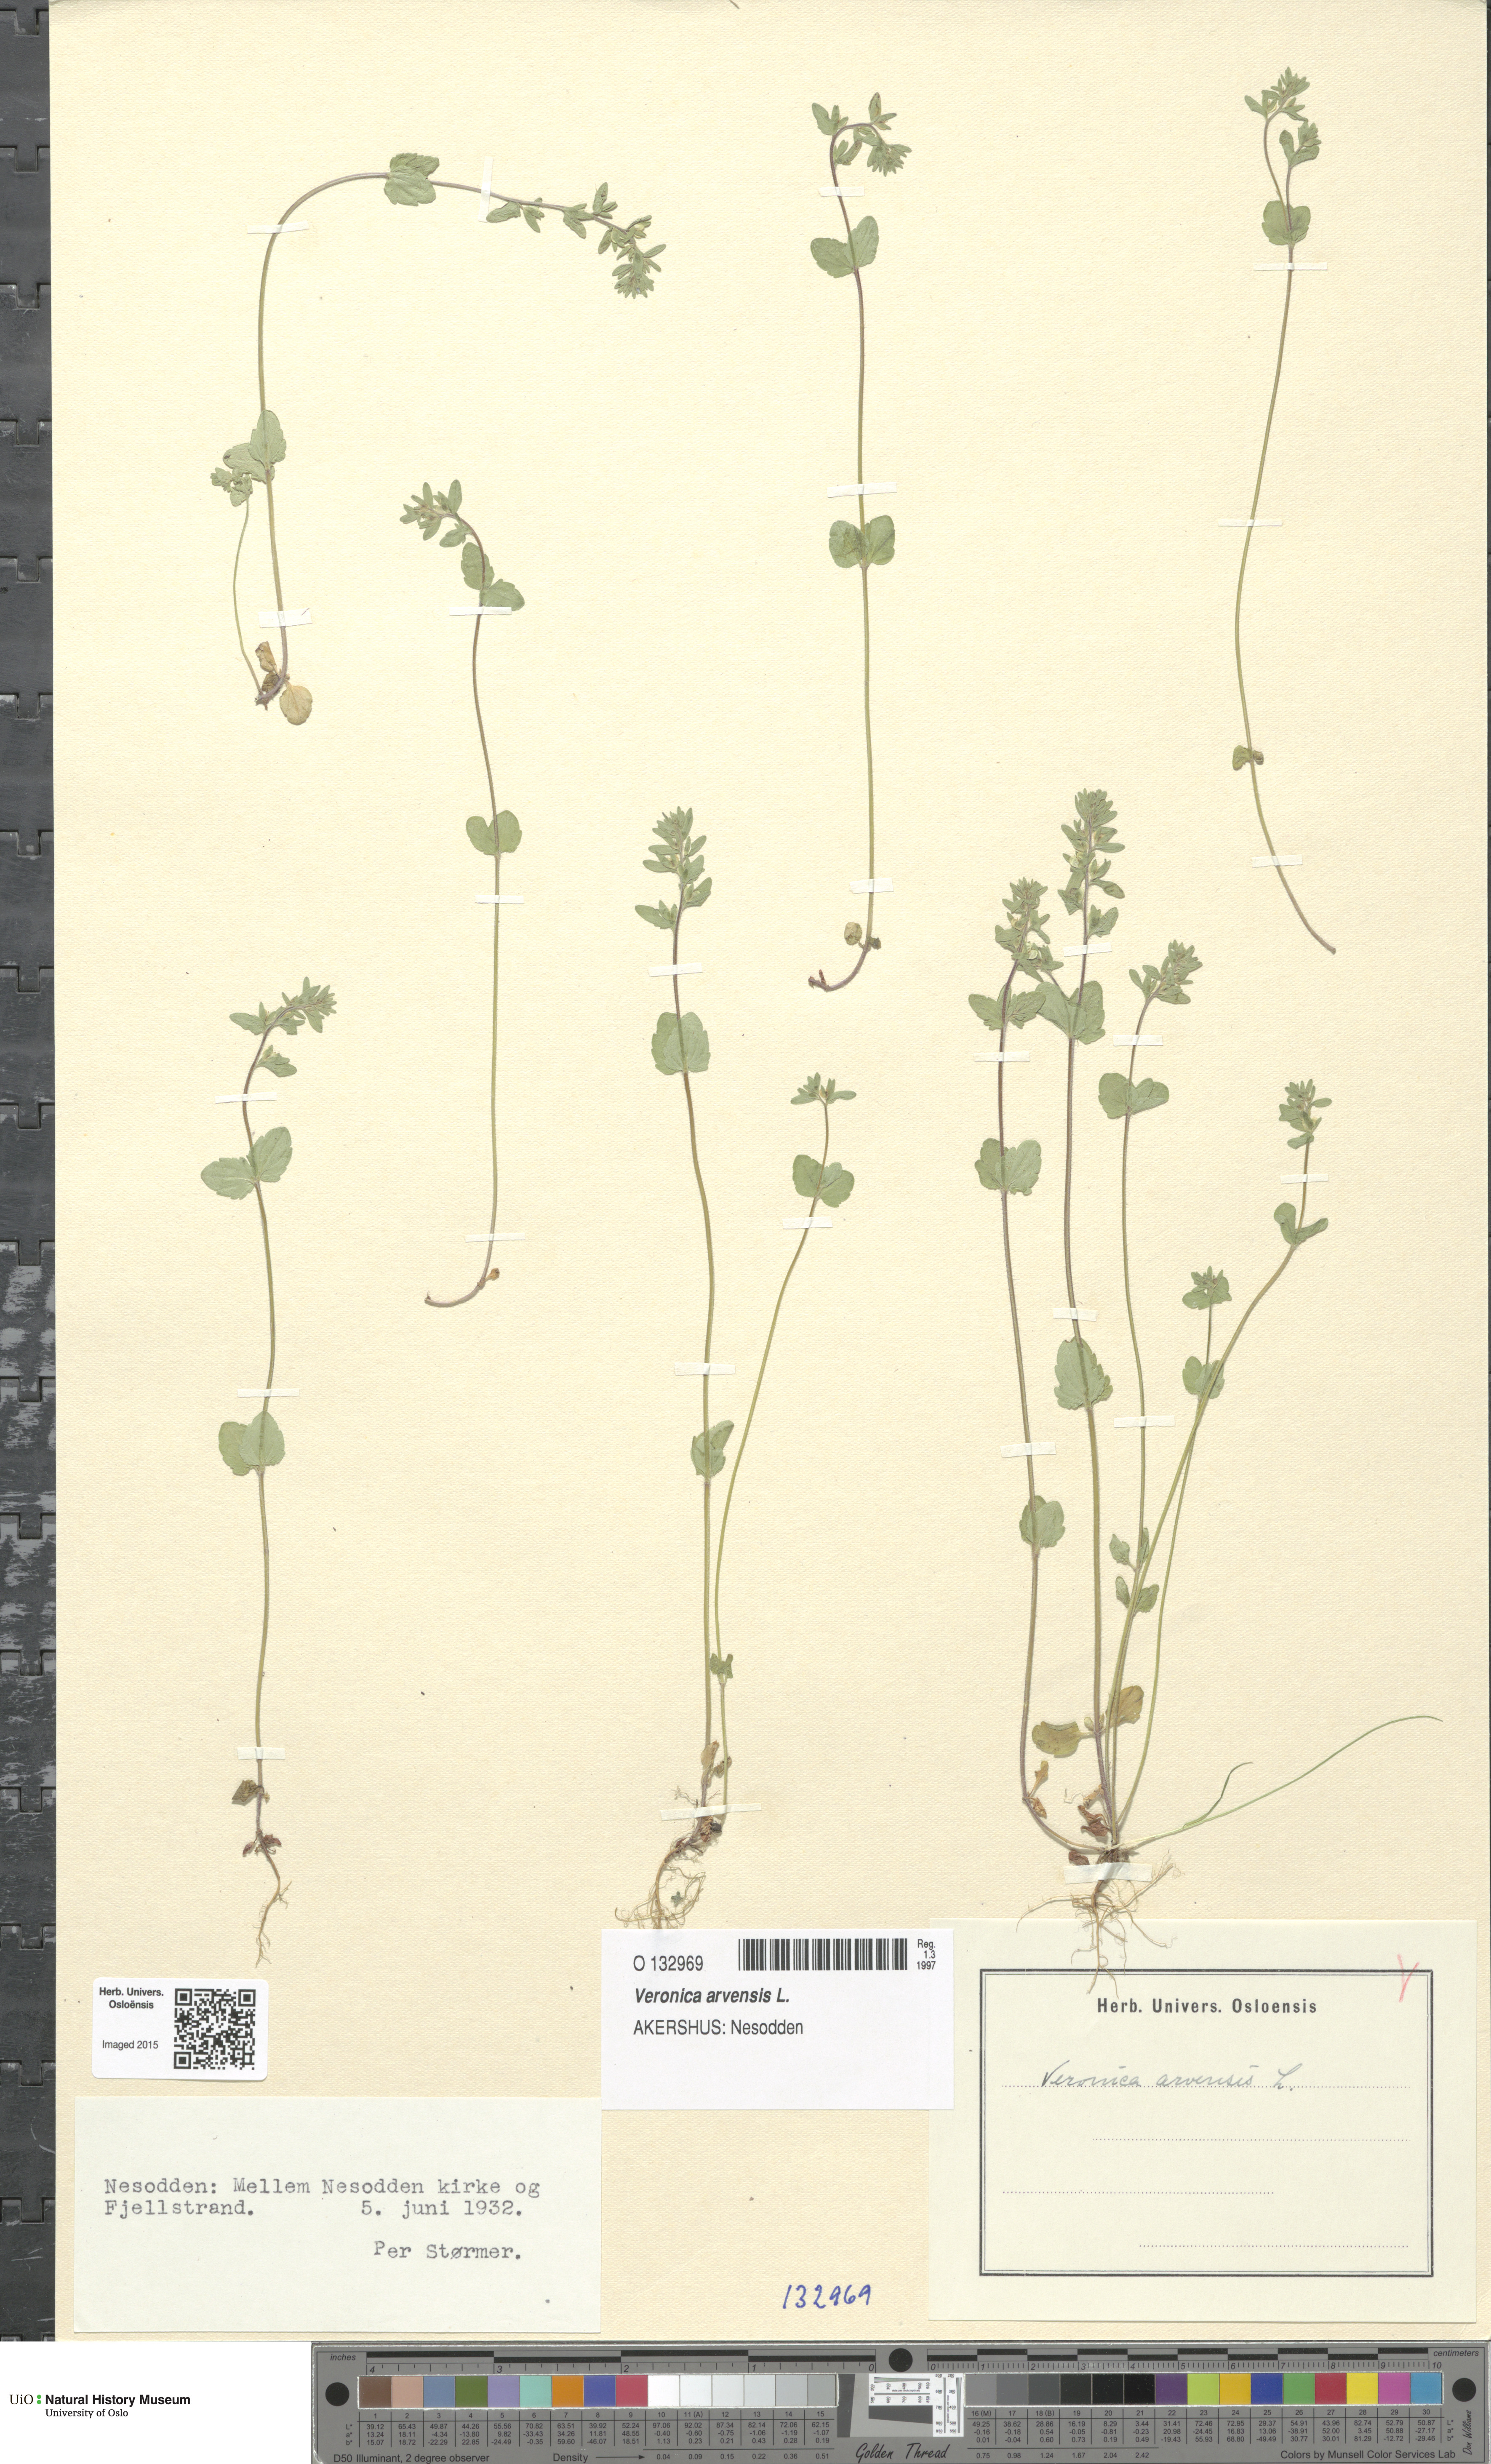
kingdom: Plantae
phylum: Tracheophyta
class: Magnoliopsida
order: Lamiales
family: Plantaginaceae
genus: Veronica
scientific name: Veronica arvensis
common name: Corn speedwell
